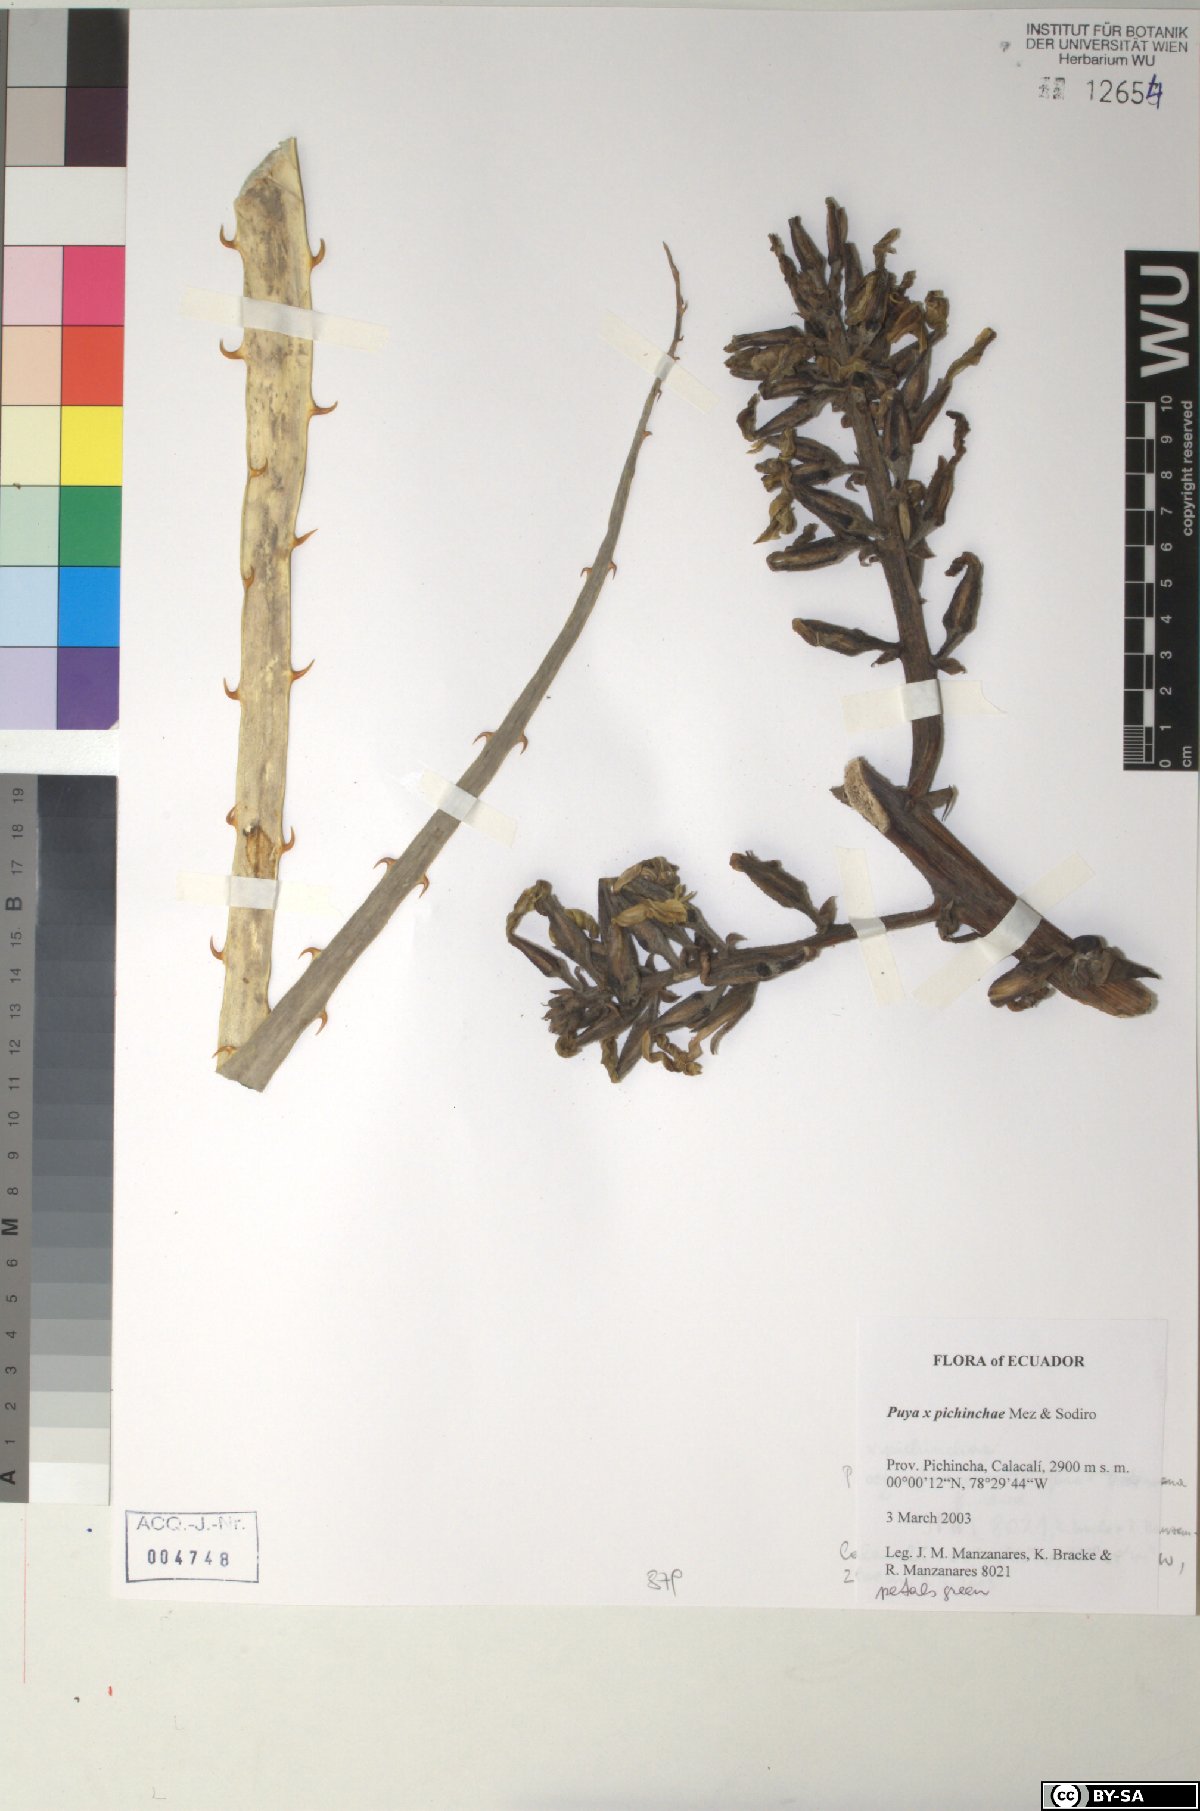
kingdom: Plantae
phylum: Tracheophyta
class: Liliopsida
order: Poales
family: Bromeliaceae
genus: Puya
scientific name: Puya pichinchae
